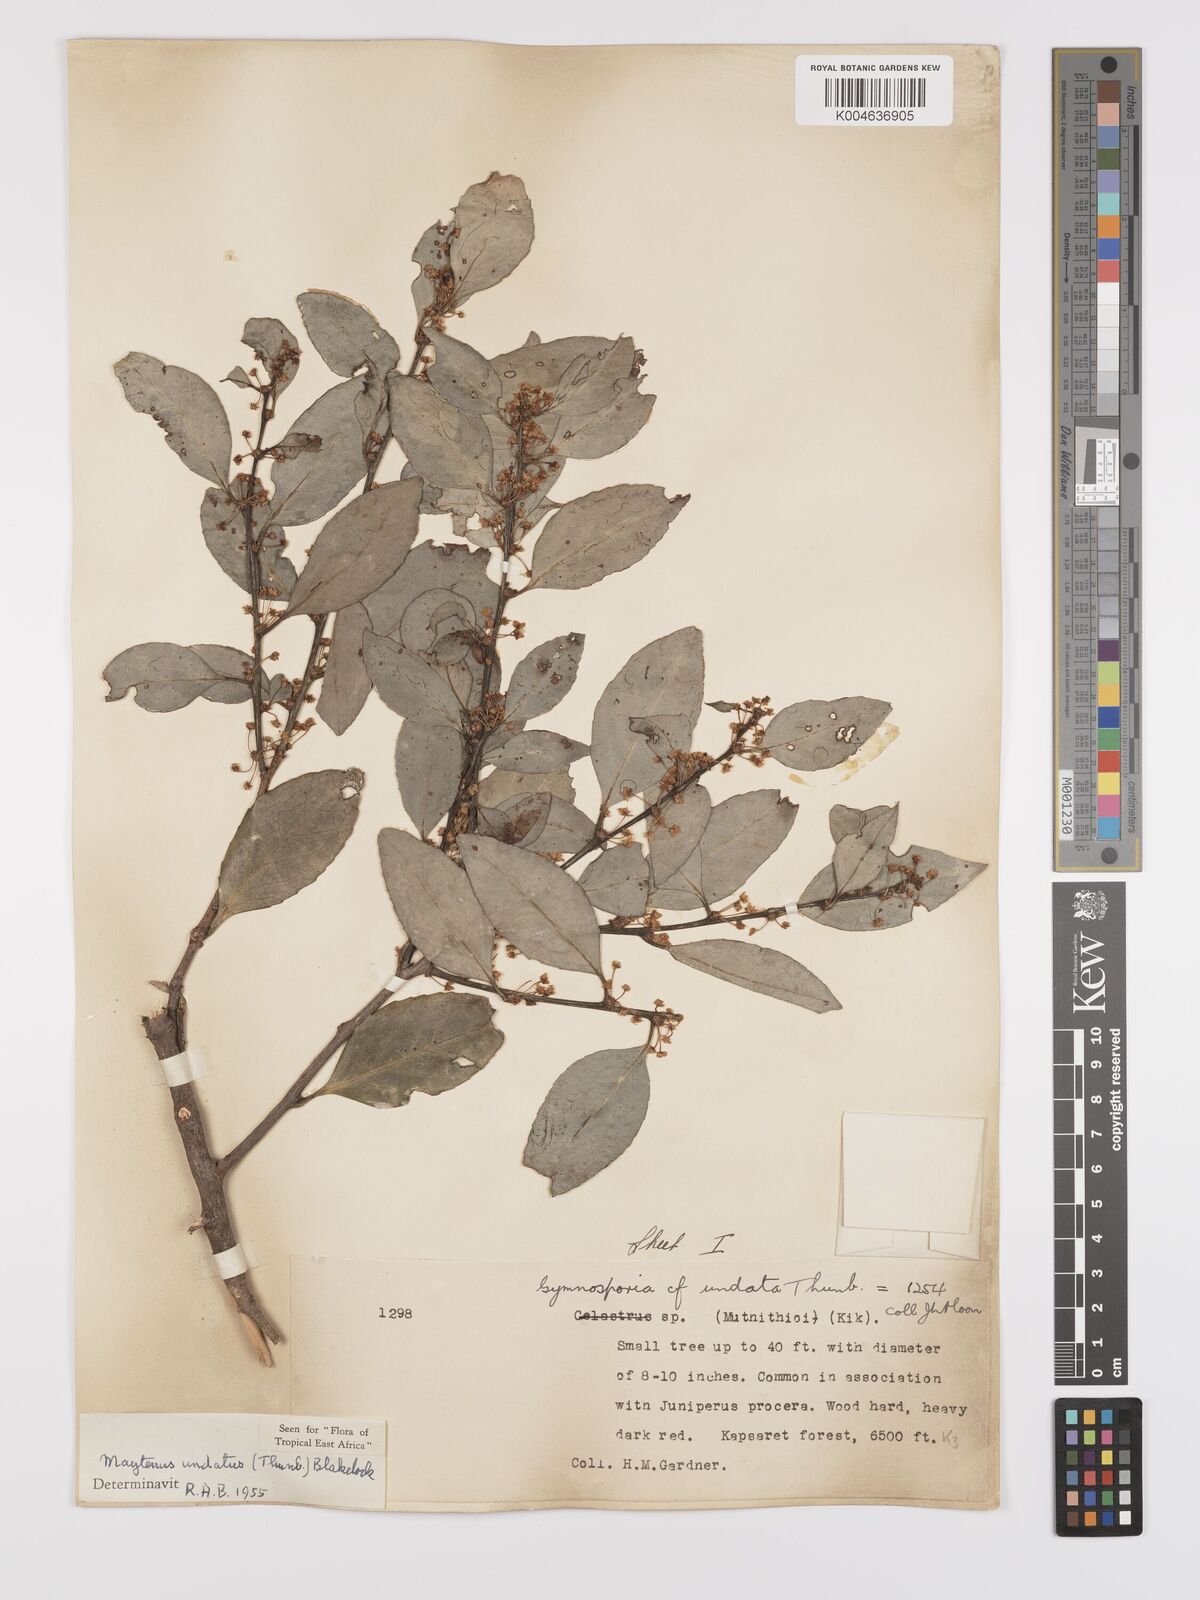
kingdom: Plantae
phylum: Tracheophyta
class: Magnoliopsida
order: Celastrales
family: Celastraceae
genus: Gymnosporia
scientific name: Gymnosporia undata
